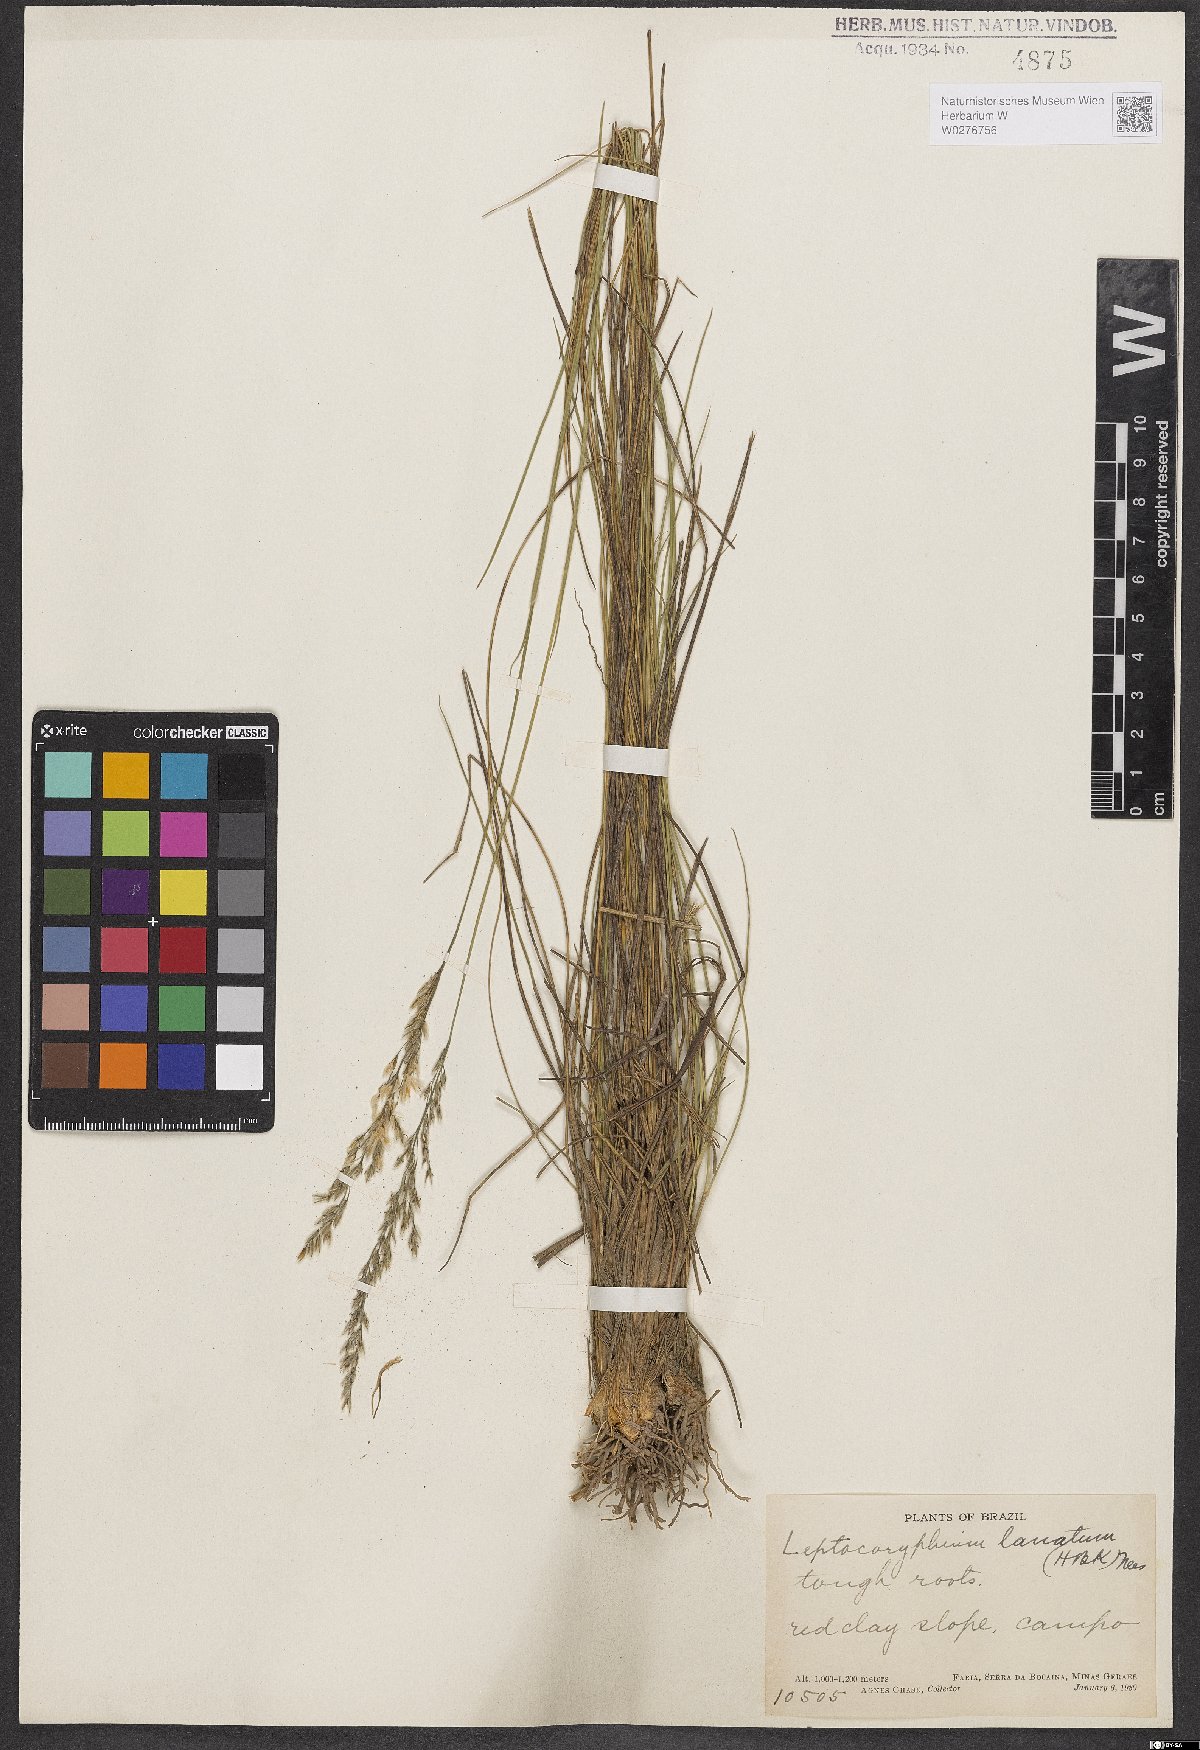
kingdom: Plantae
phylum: Tracheophyta
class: Liliopsida
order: Poales
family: Poaceae
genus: Anthaenantia
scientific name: Anthaenantia lanata
